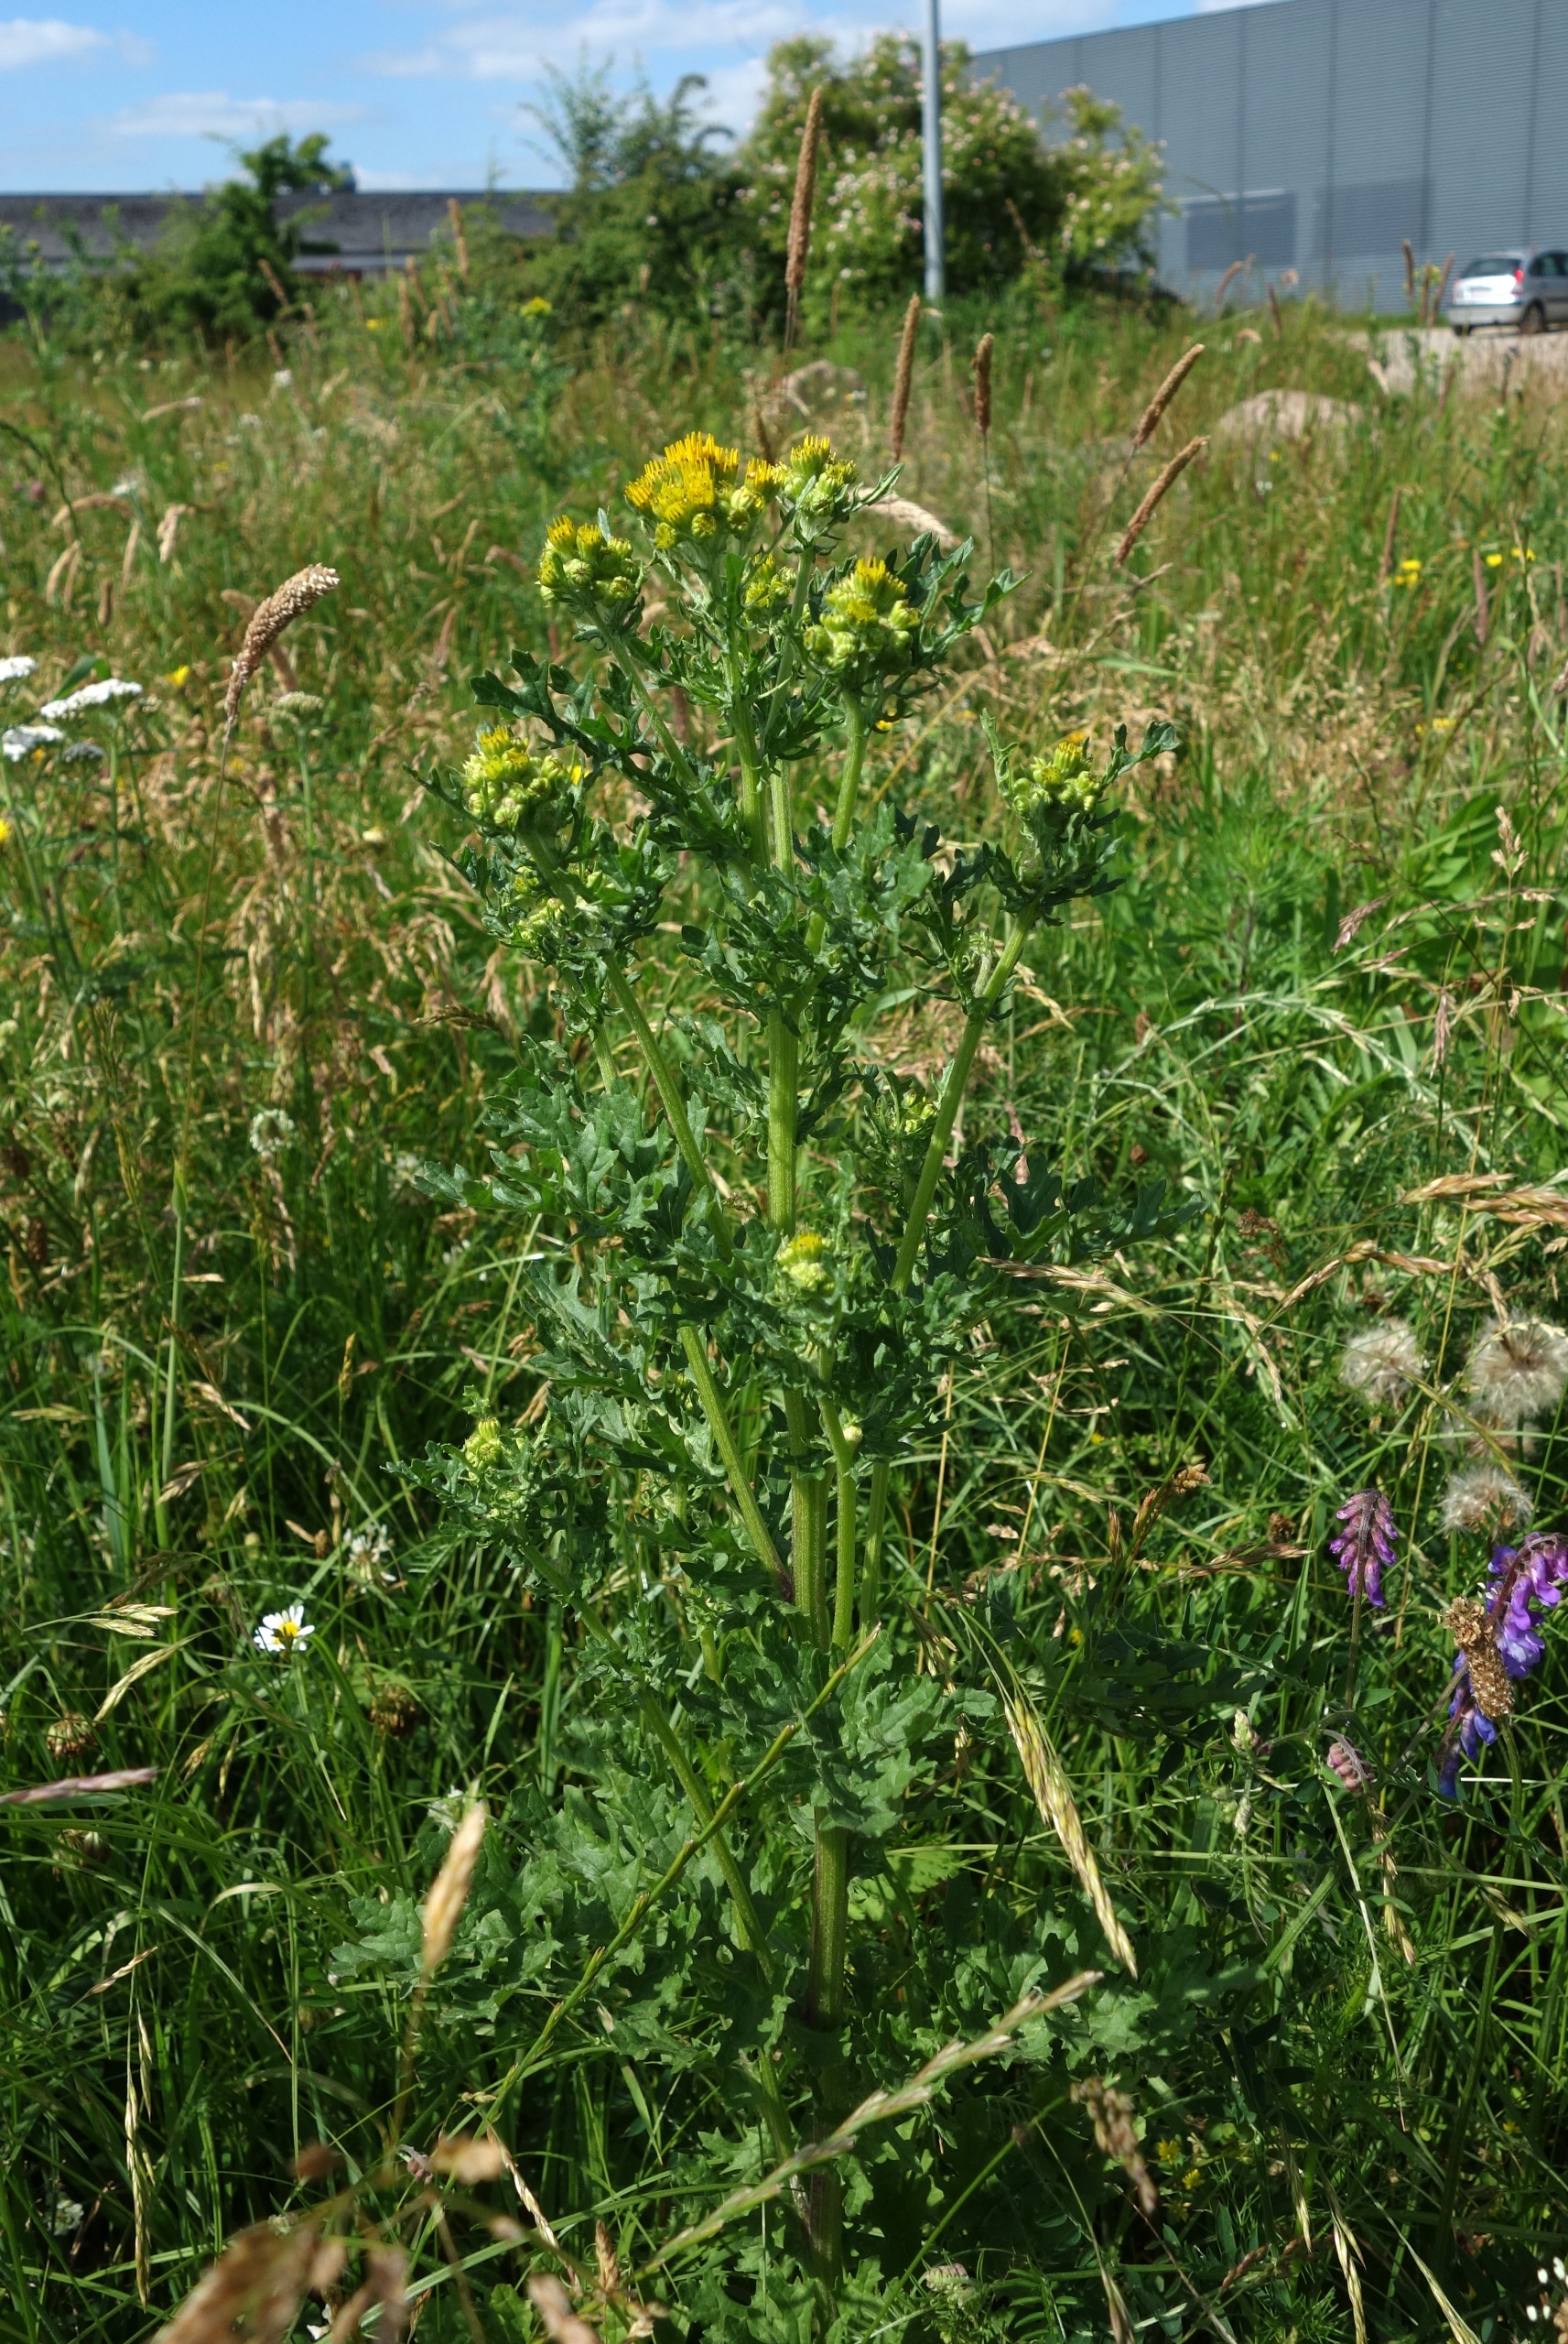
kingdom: Plantae
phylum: Tracheophyta
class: Magnoliopsida
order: Asterales
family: Asteraceae
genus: Jacobaea
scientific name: Jacobaea vulgaris
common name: Eng-brandbæger
